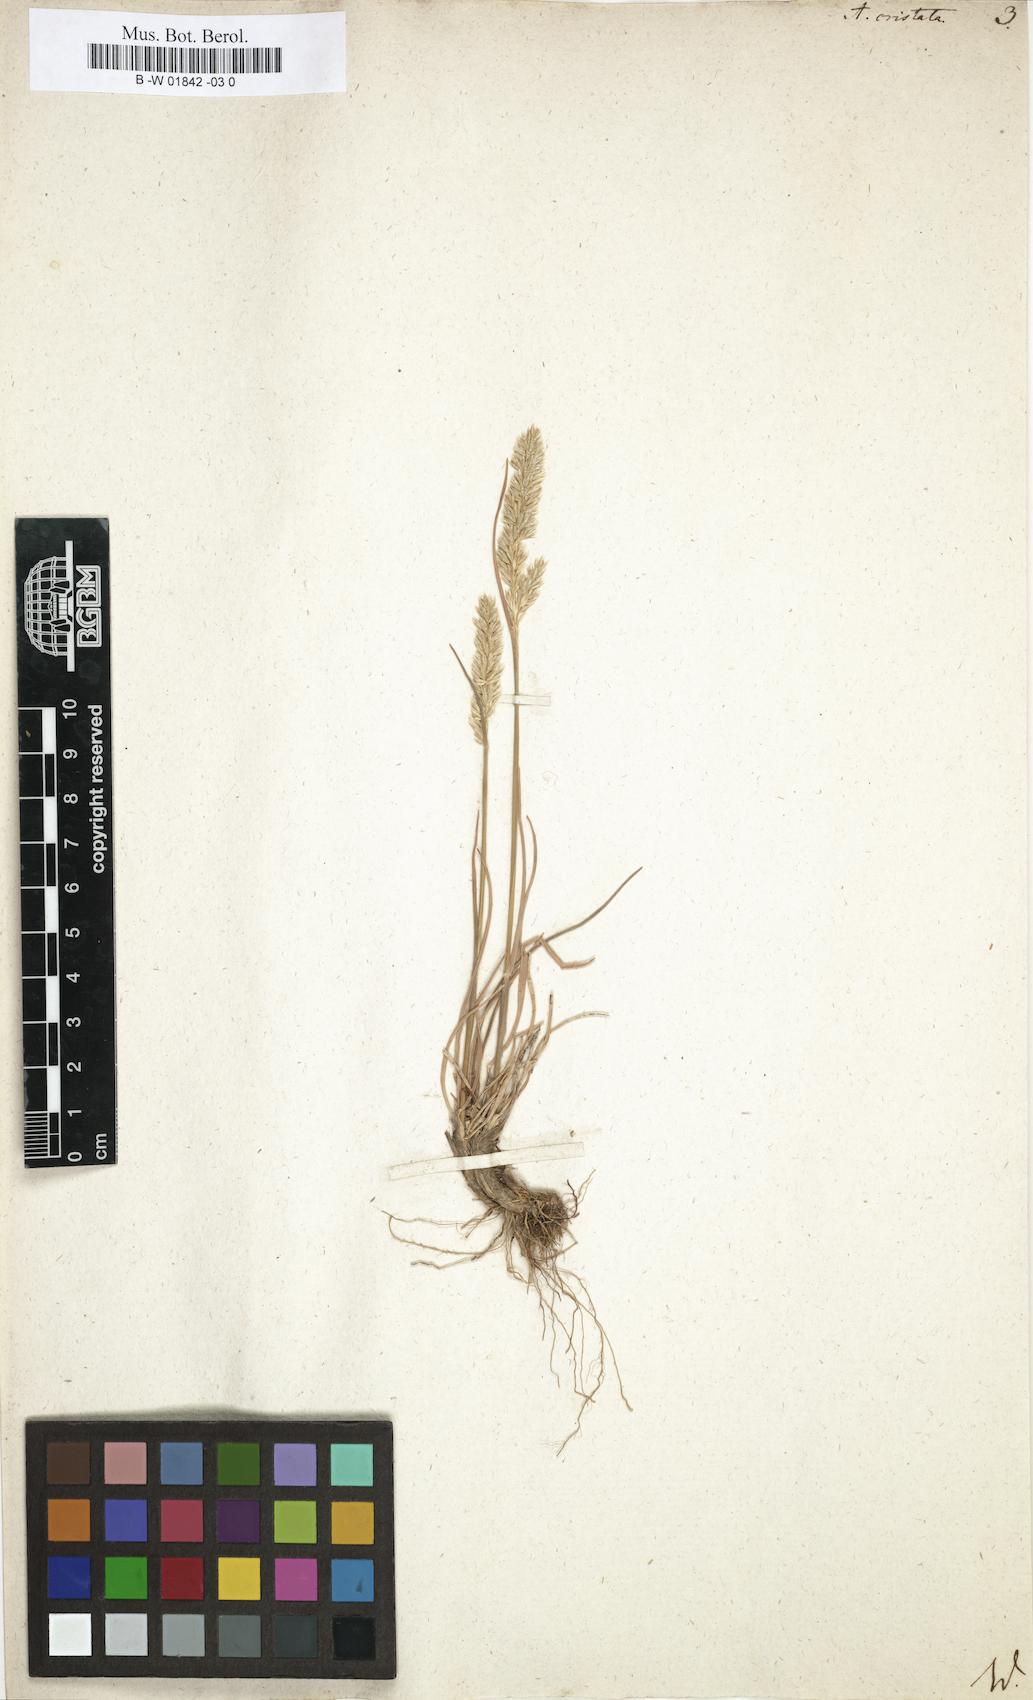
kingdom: Plantae
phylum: Tracheophyta
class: Liliopsida
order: Poales
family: Poaceae
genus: Koeleria
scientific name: Koeleria macrantha
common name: Crested hair-grass
